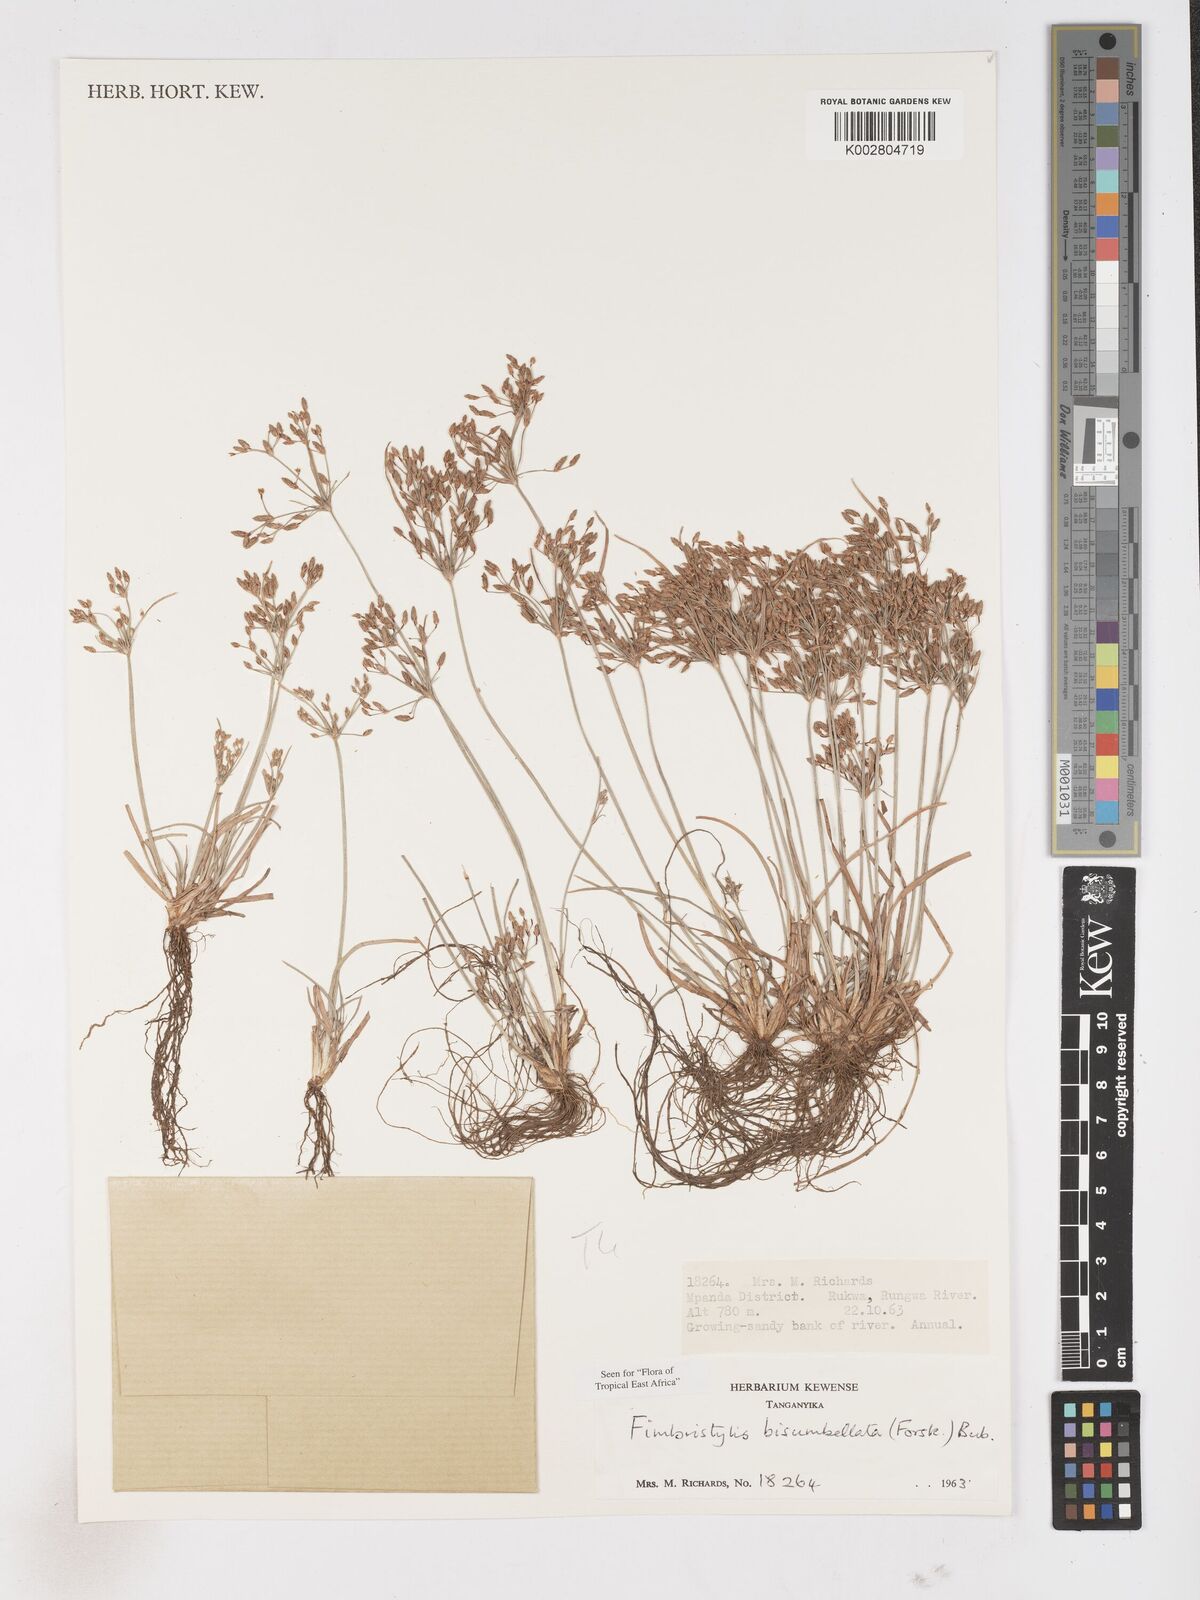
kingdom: Plantae
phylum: Tracheophyta
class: Liliopsida
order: Poales
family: Cyperaceae
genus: Fimbristylis
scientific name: Fimbristylis bisumbellata
